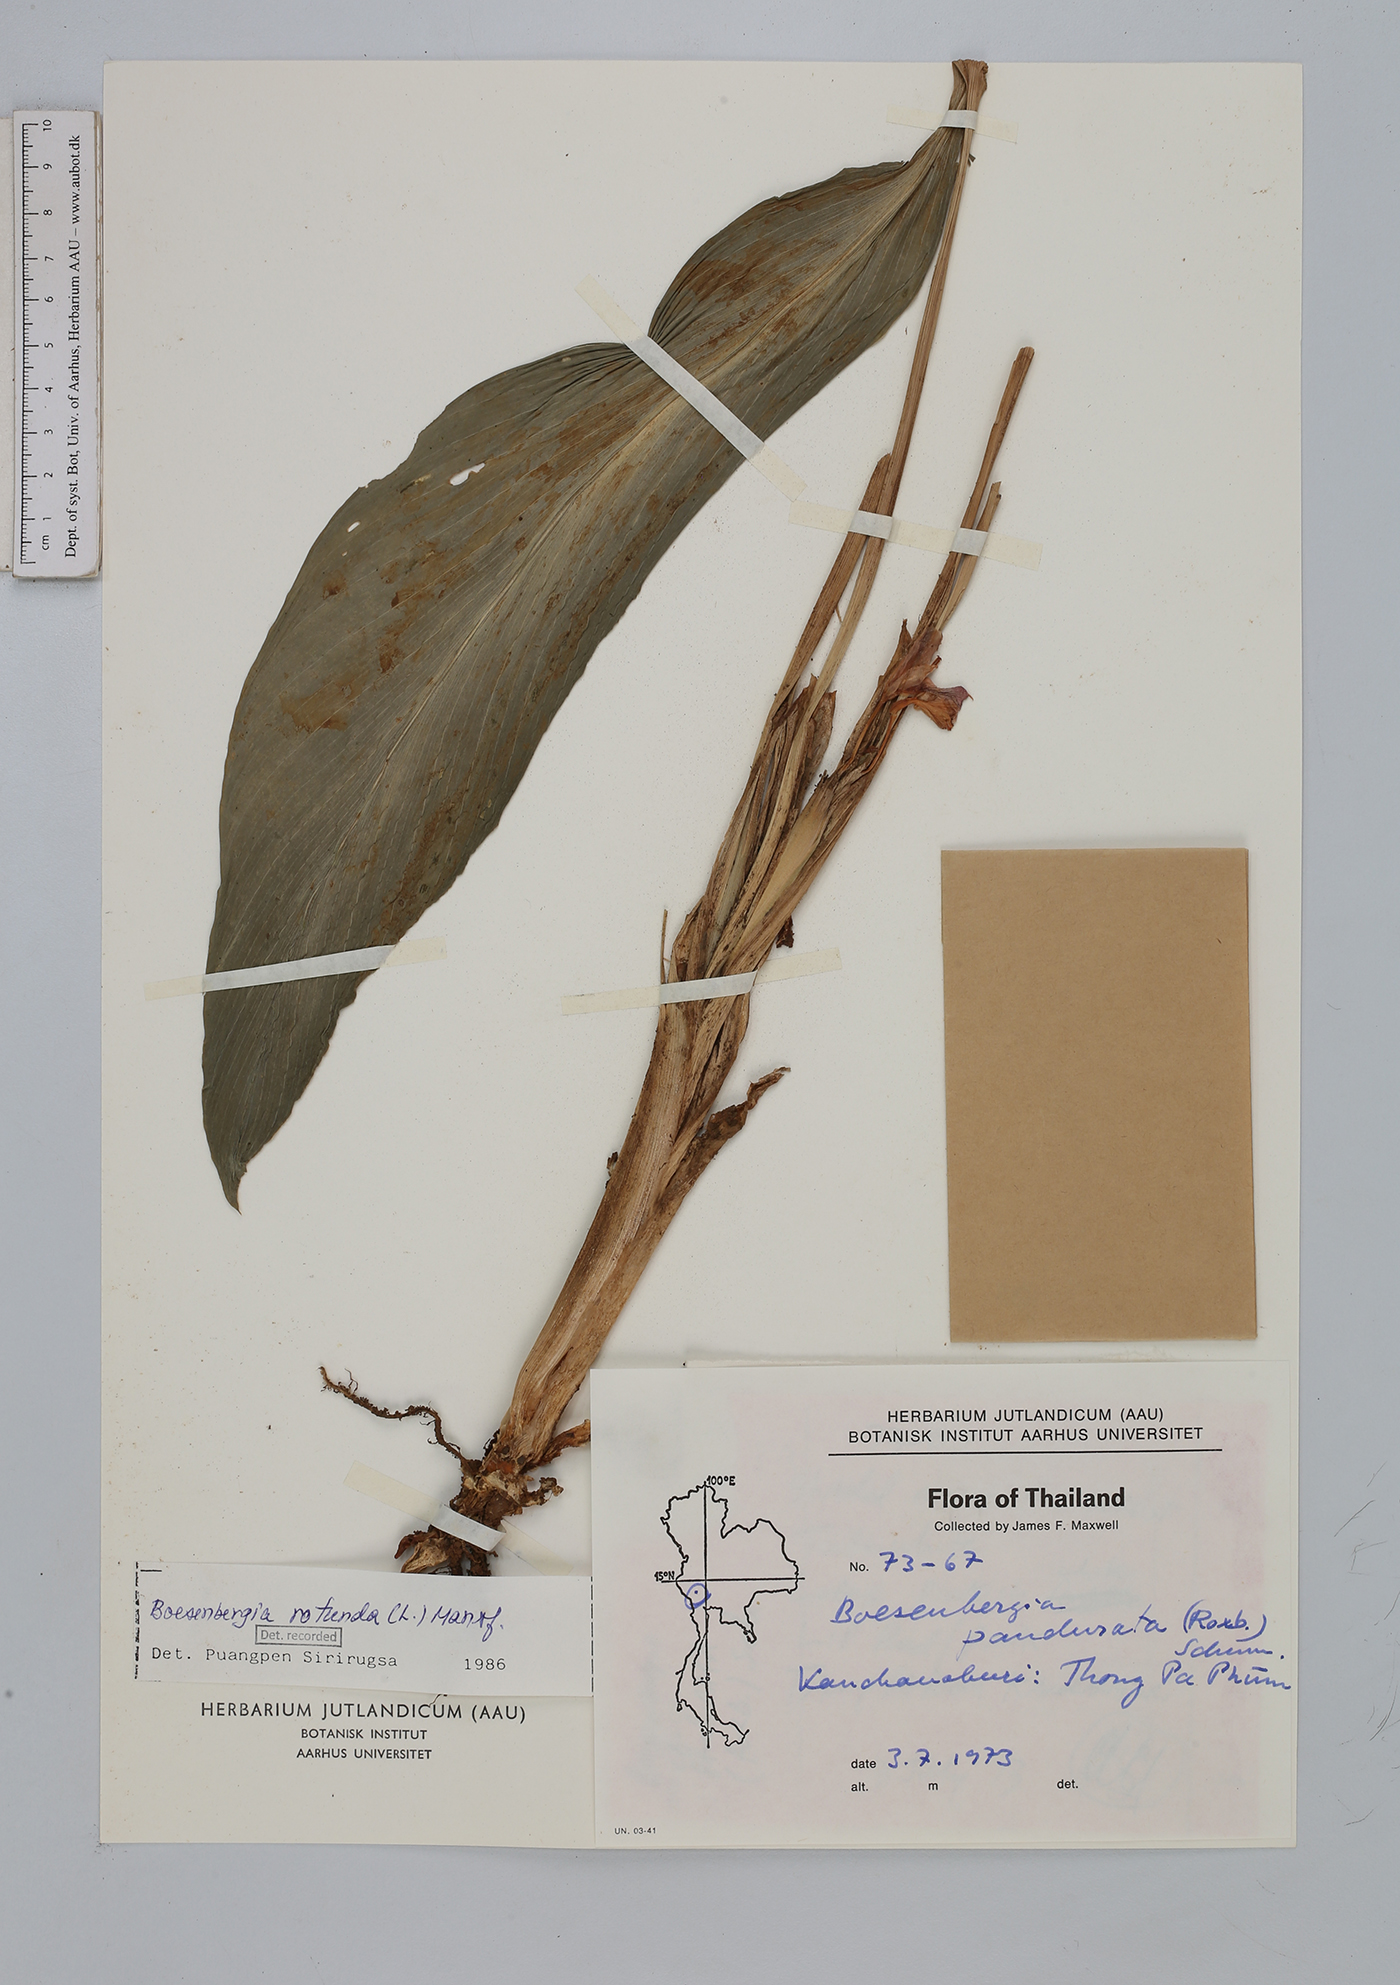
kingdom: Plantae
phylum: Tracheophyta
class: Liliopsida
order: Zingiberales
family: Zingiberaceae
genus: Boesenbergia
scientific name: Boesenbergia rotunda
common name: Chinese ginger
